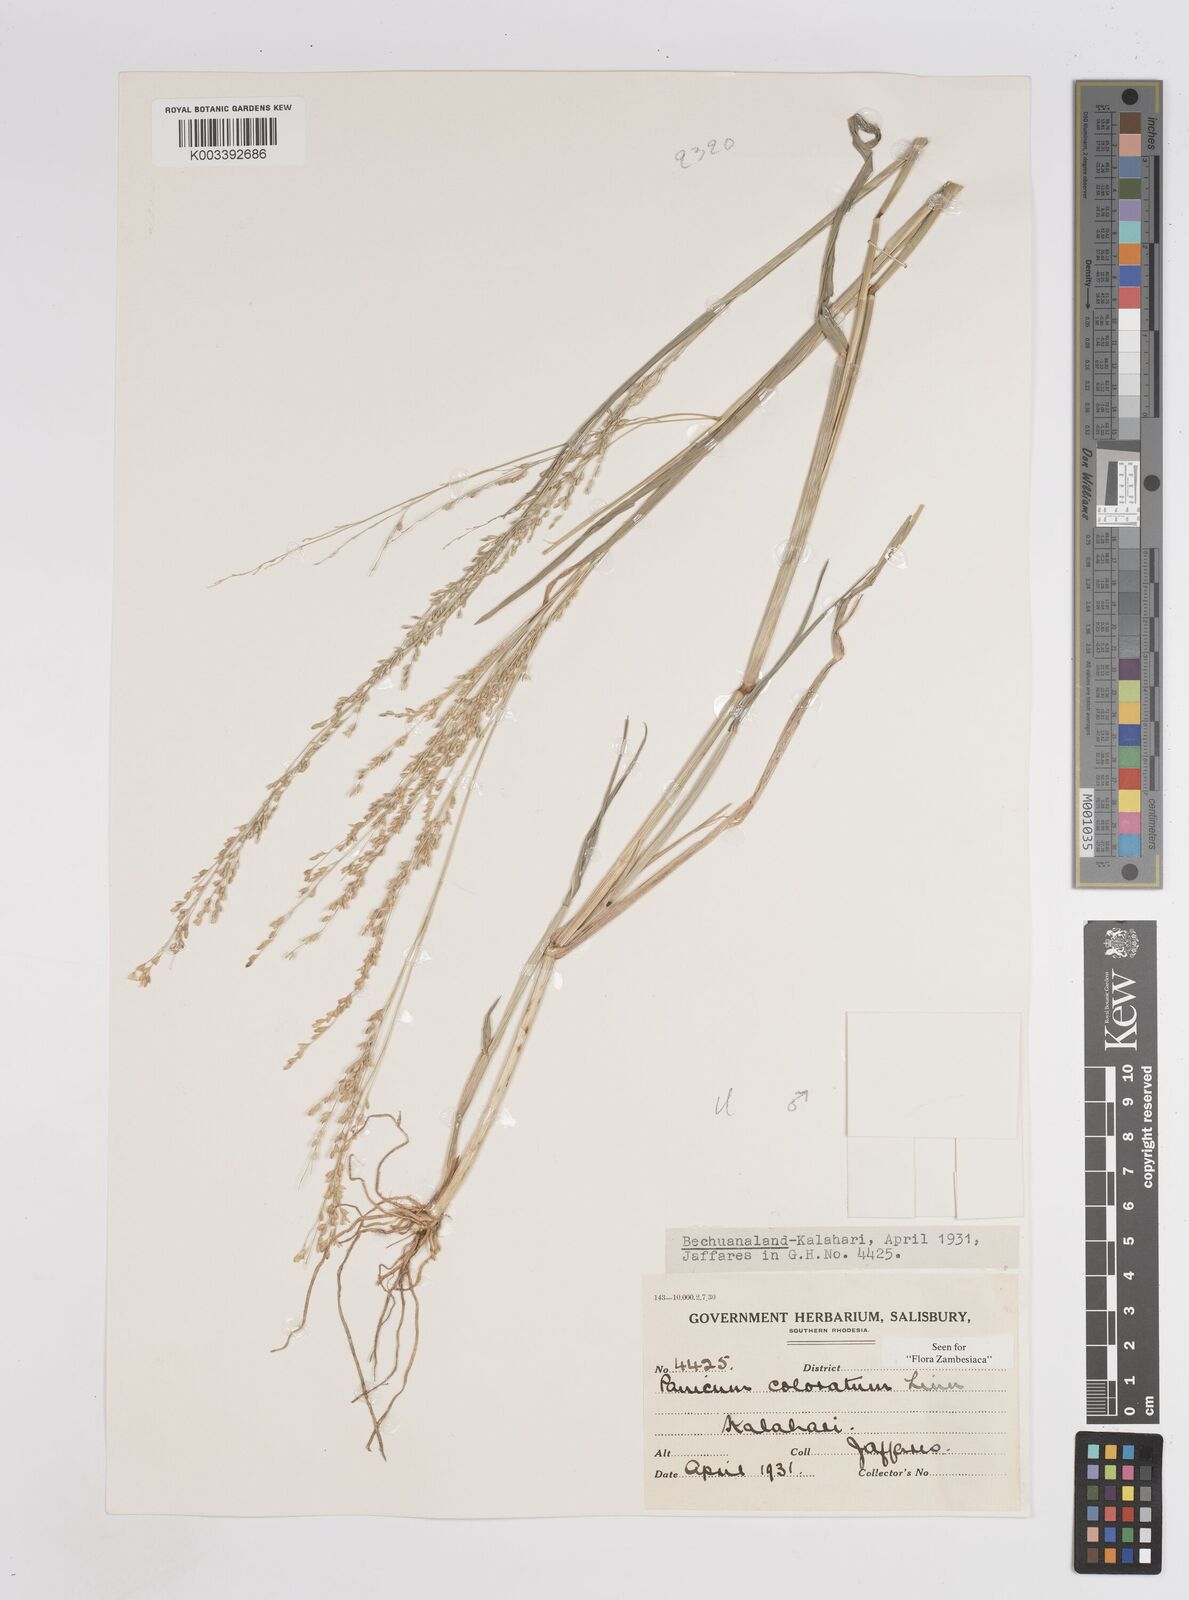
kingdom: Plantae
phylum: Tracheophyta
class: Liliopsida
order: Poales
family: Poaceae
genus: Panicum
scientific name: Panicum coloratum
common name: Kleingrass
